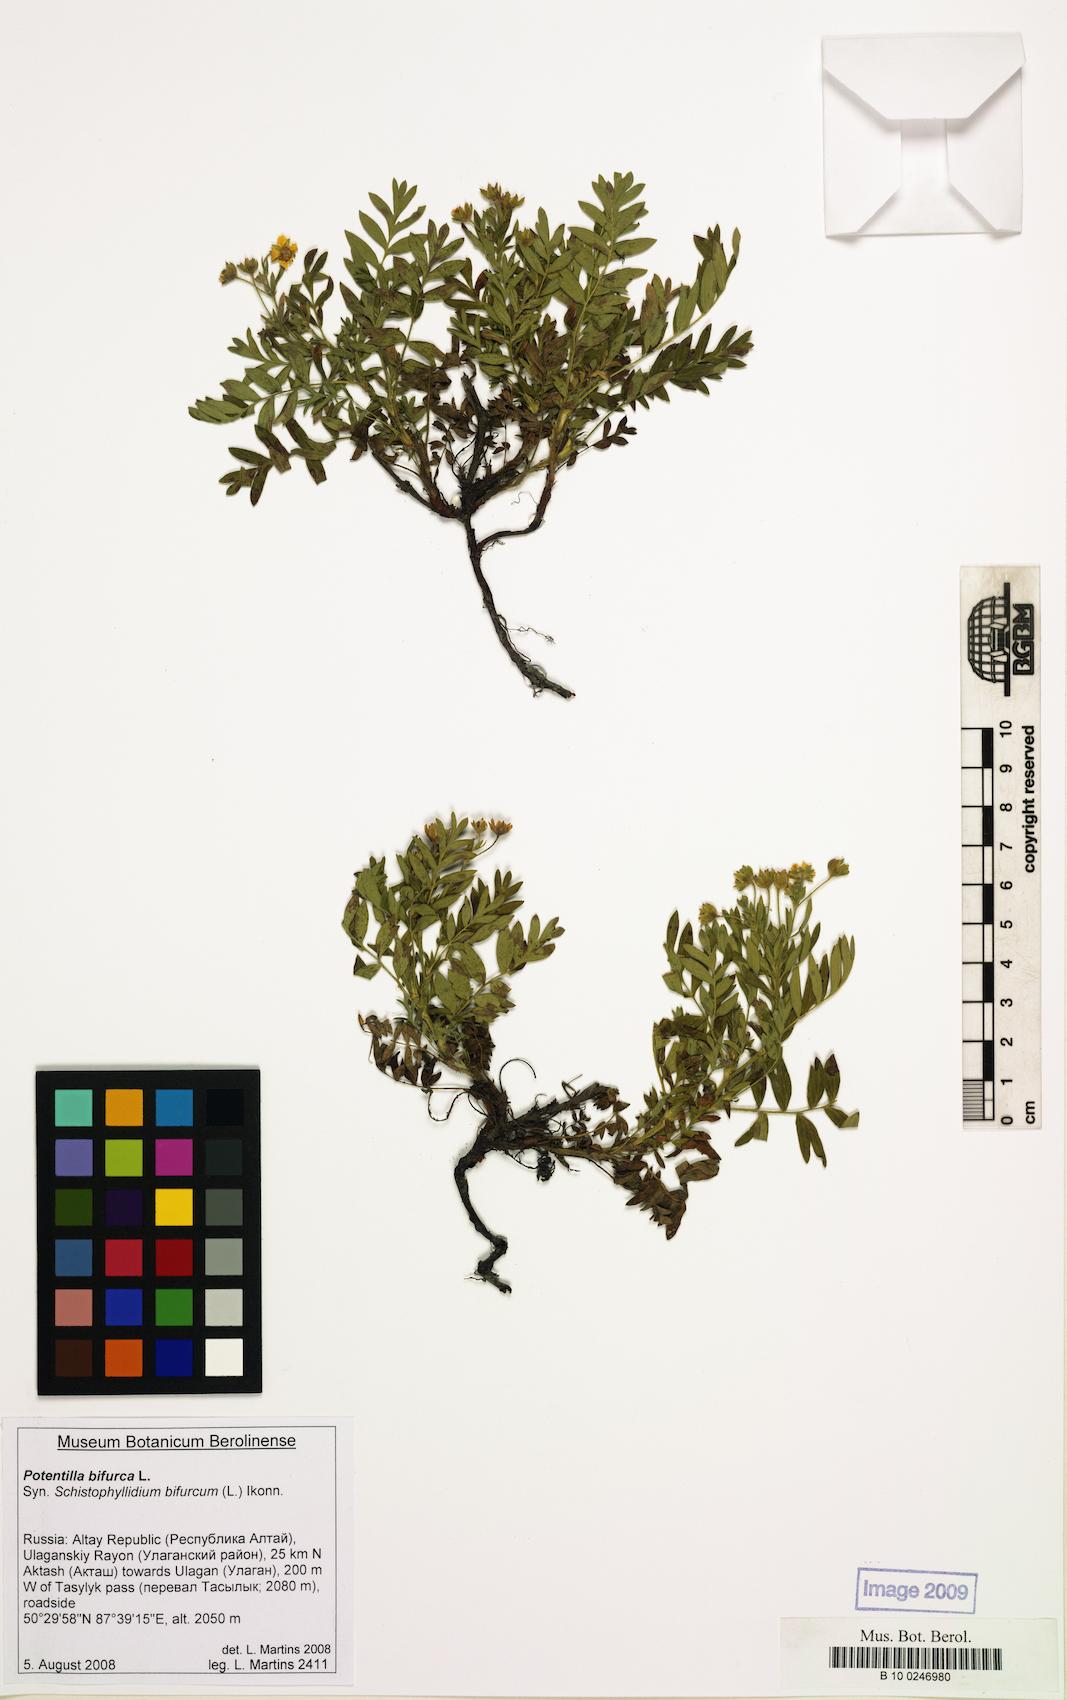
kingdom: Plantae
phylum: Tracheophyta
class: Magnoliopsida
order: Rosales
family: Rosaceae
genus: Sibbaldianthe
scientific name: Sibbaldianthe bifurca
